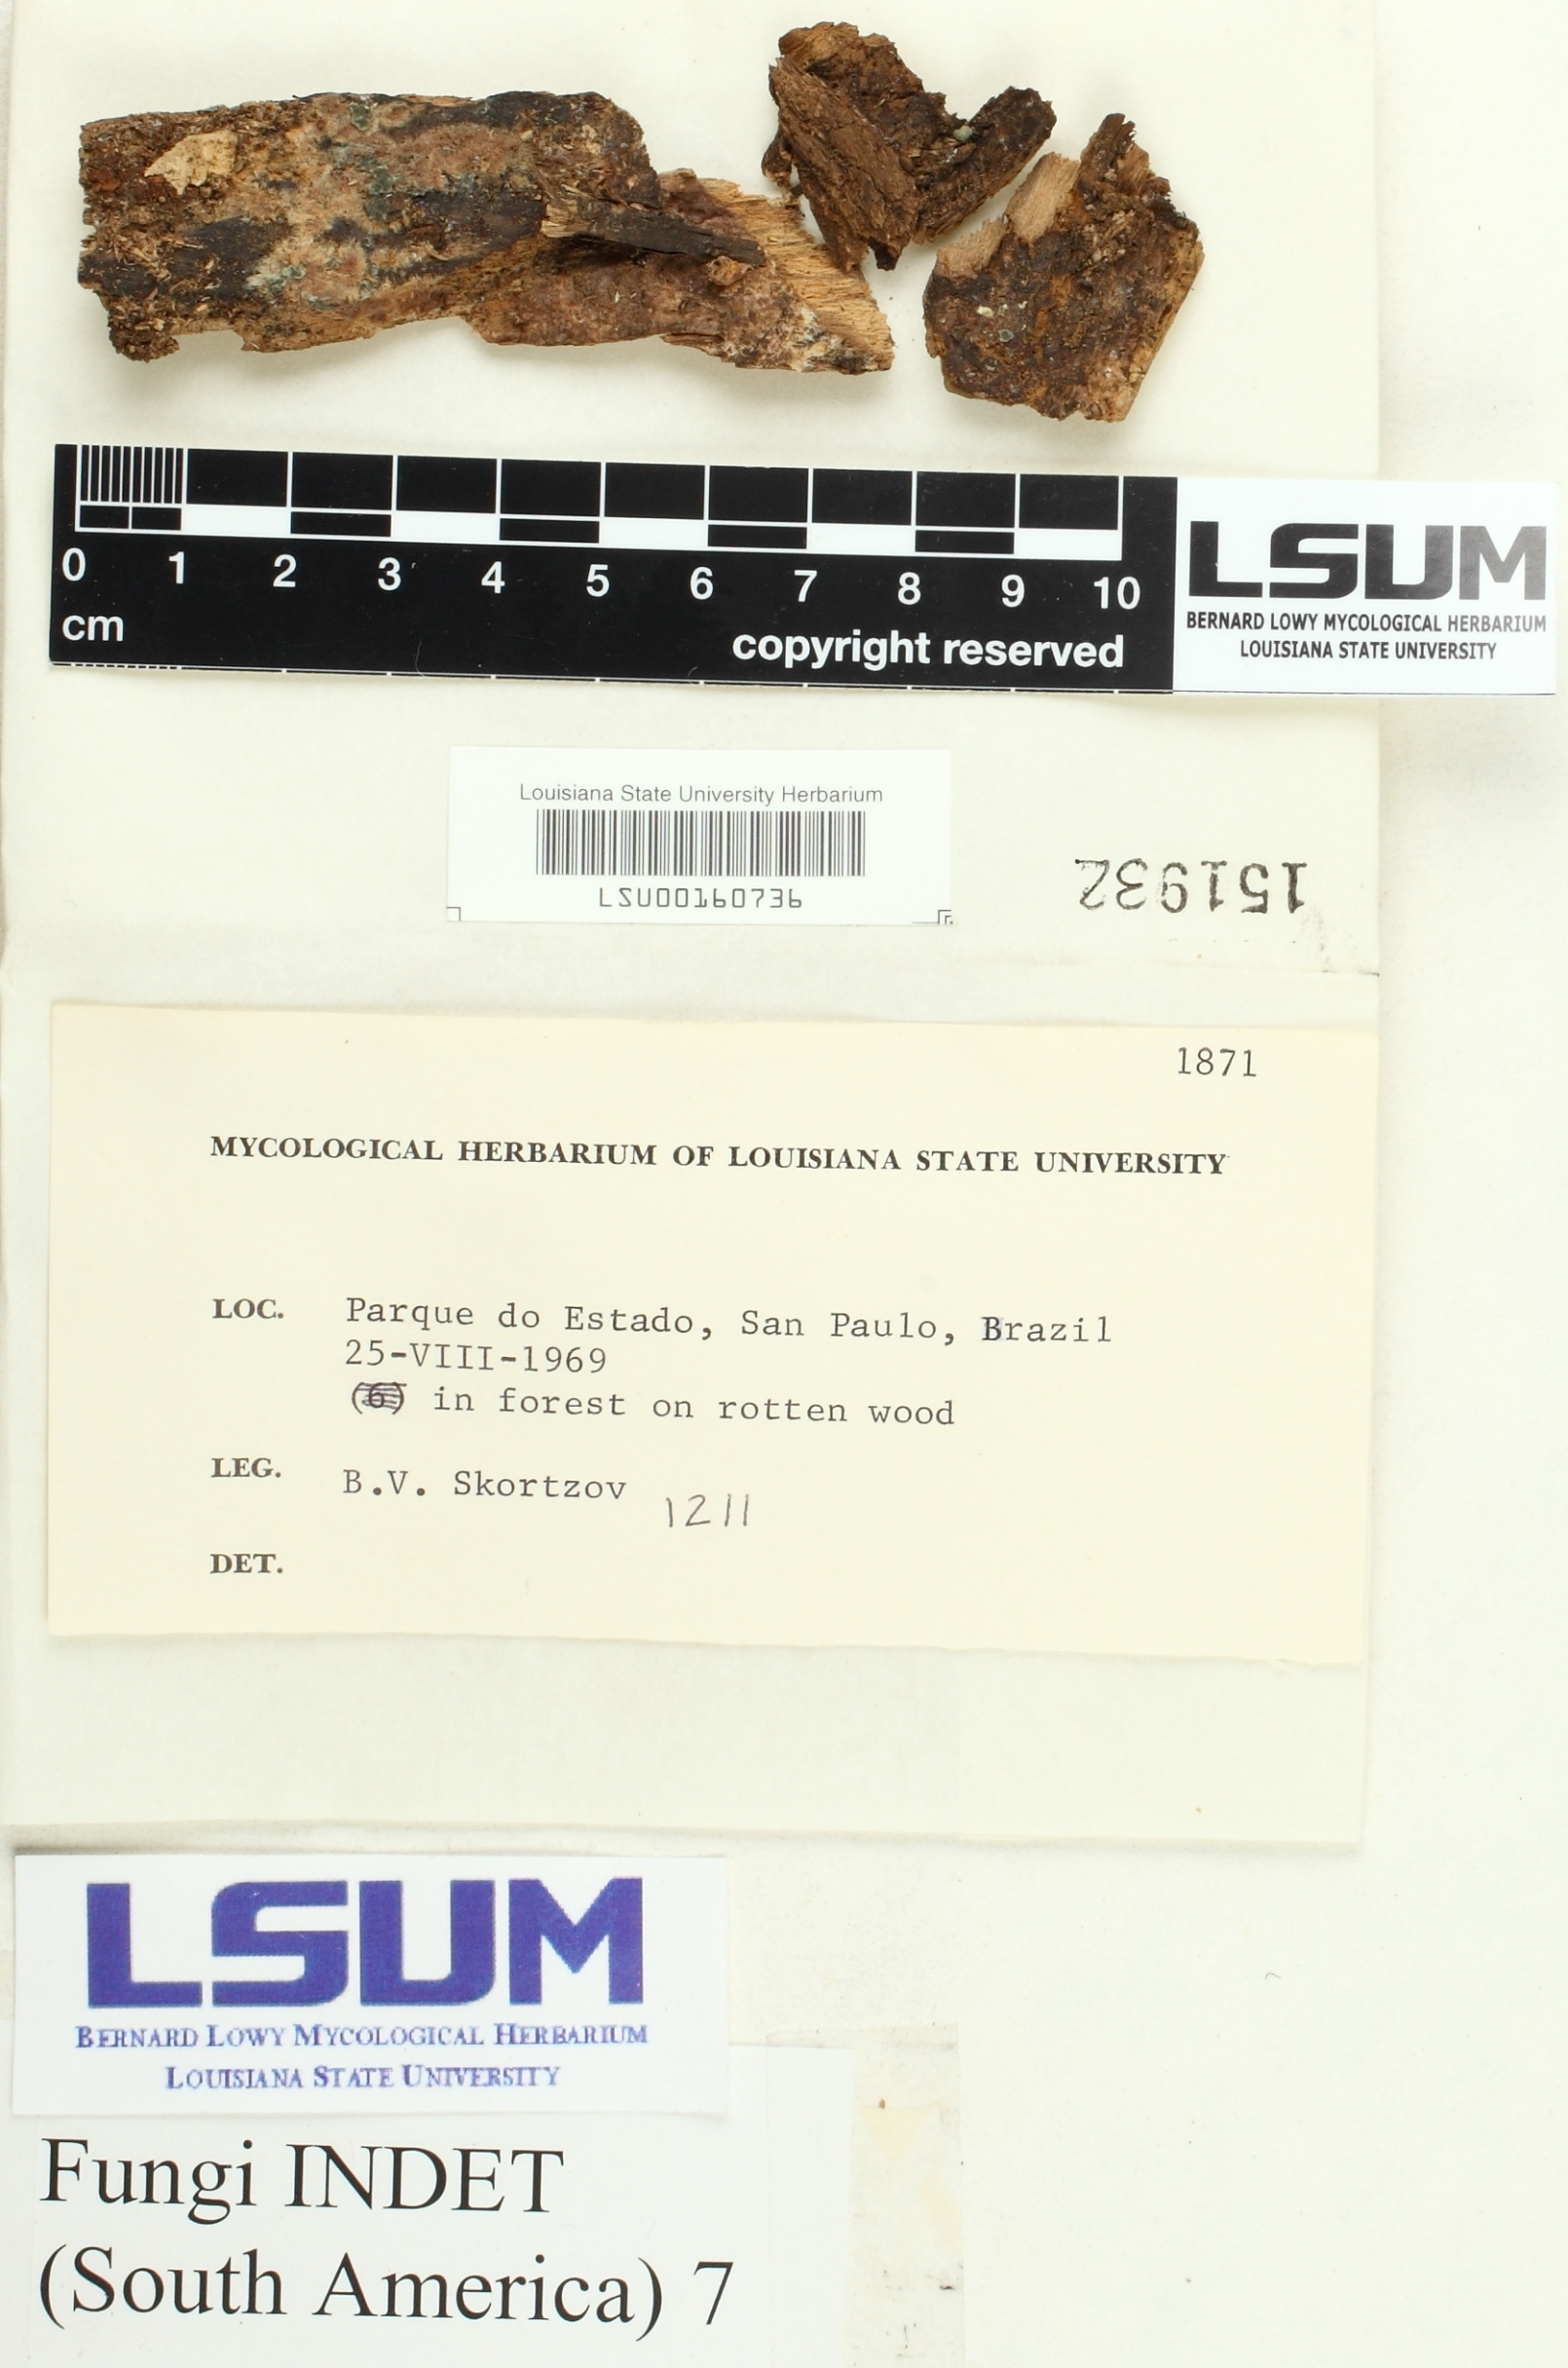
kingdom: Fungi
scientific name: Fungi
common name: Fungi
